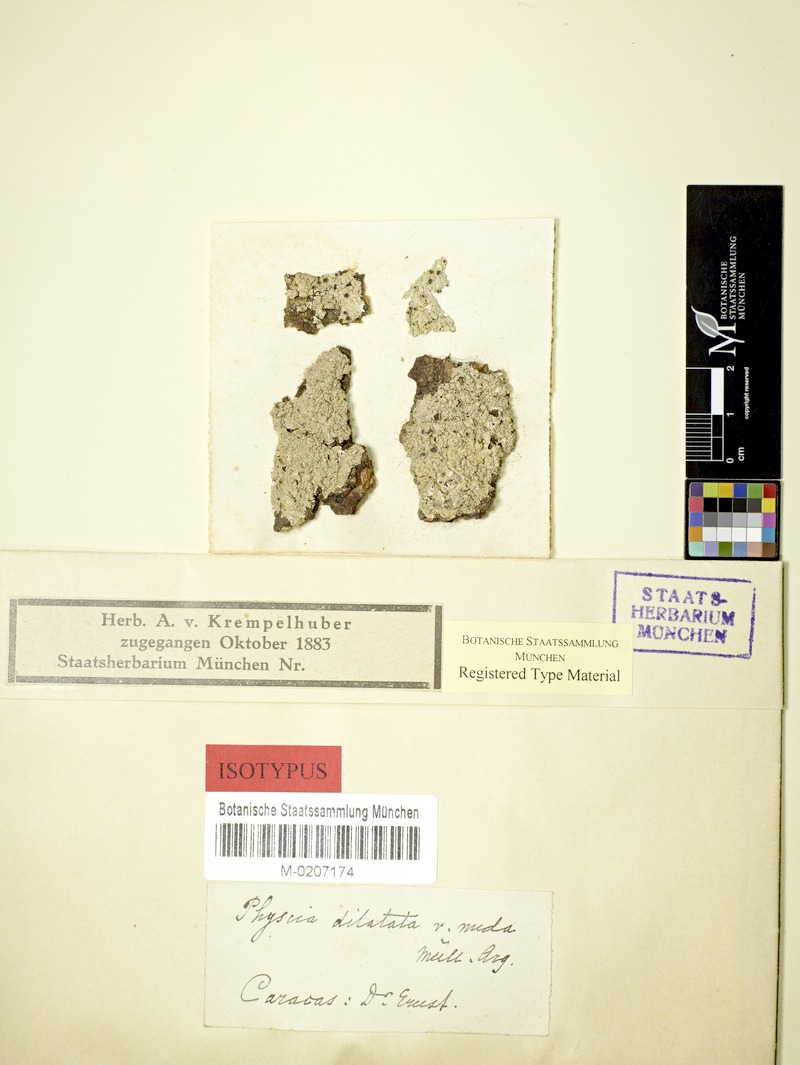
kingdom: Fungi
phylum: Ascomycota
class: Lecanoromycetes
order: Caliciales
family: Physciaceae
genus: Physcia
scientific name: Physcia dilatata
